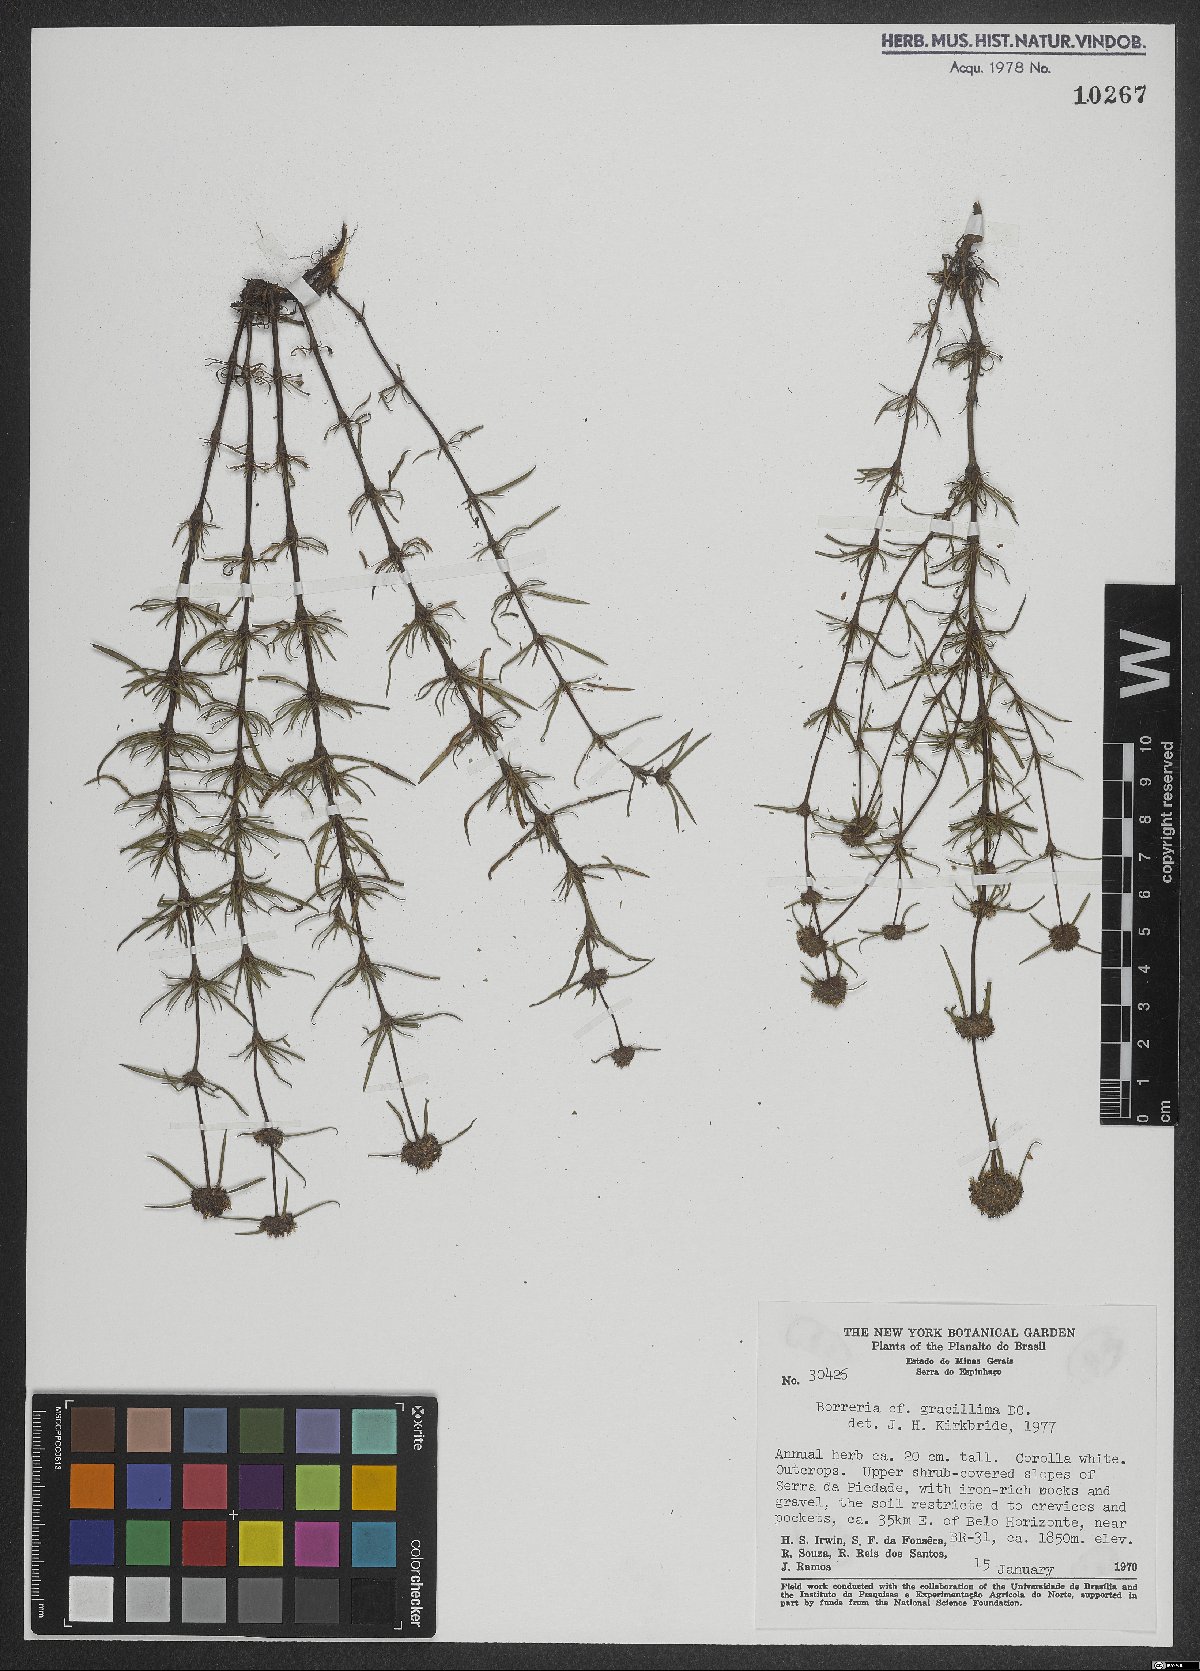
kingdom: Plantae
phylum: Tracheophyta
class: Magnoliopsida
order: Gentianales
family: Rubiaceae
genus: Spermacoce
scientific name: Spermacoce gracillima
